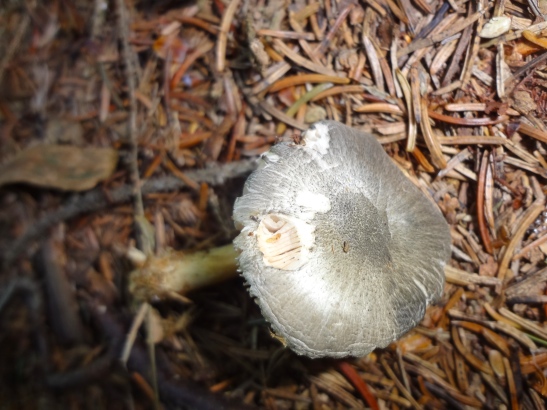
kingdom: Fungi
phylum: Basidiomycota
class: Agaricomycetes
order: Agaricales
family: Pluteaceae
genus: Pluteus
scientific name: Pluteus salicinus
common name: stiv skærmhat
